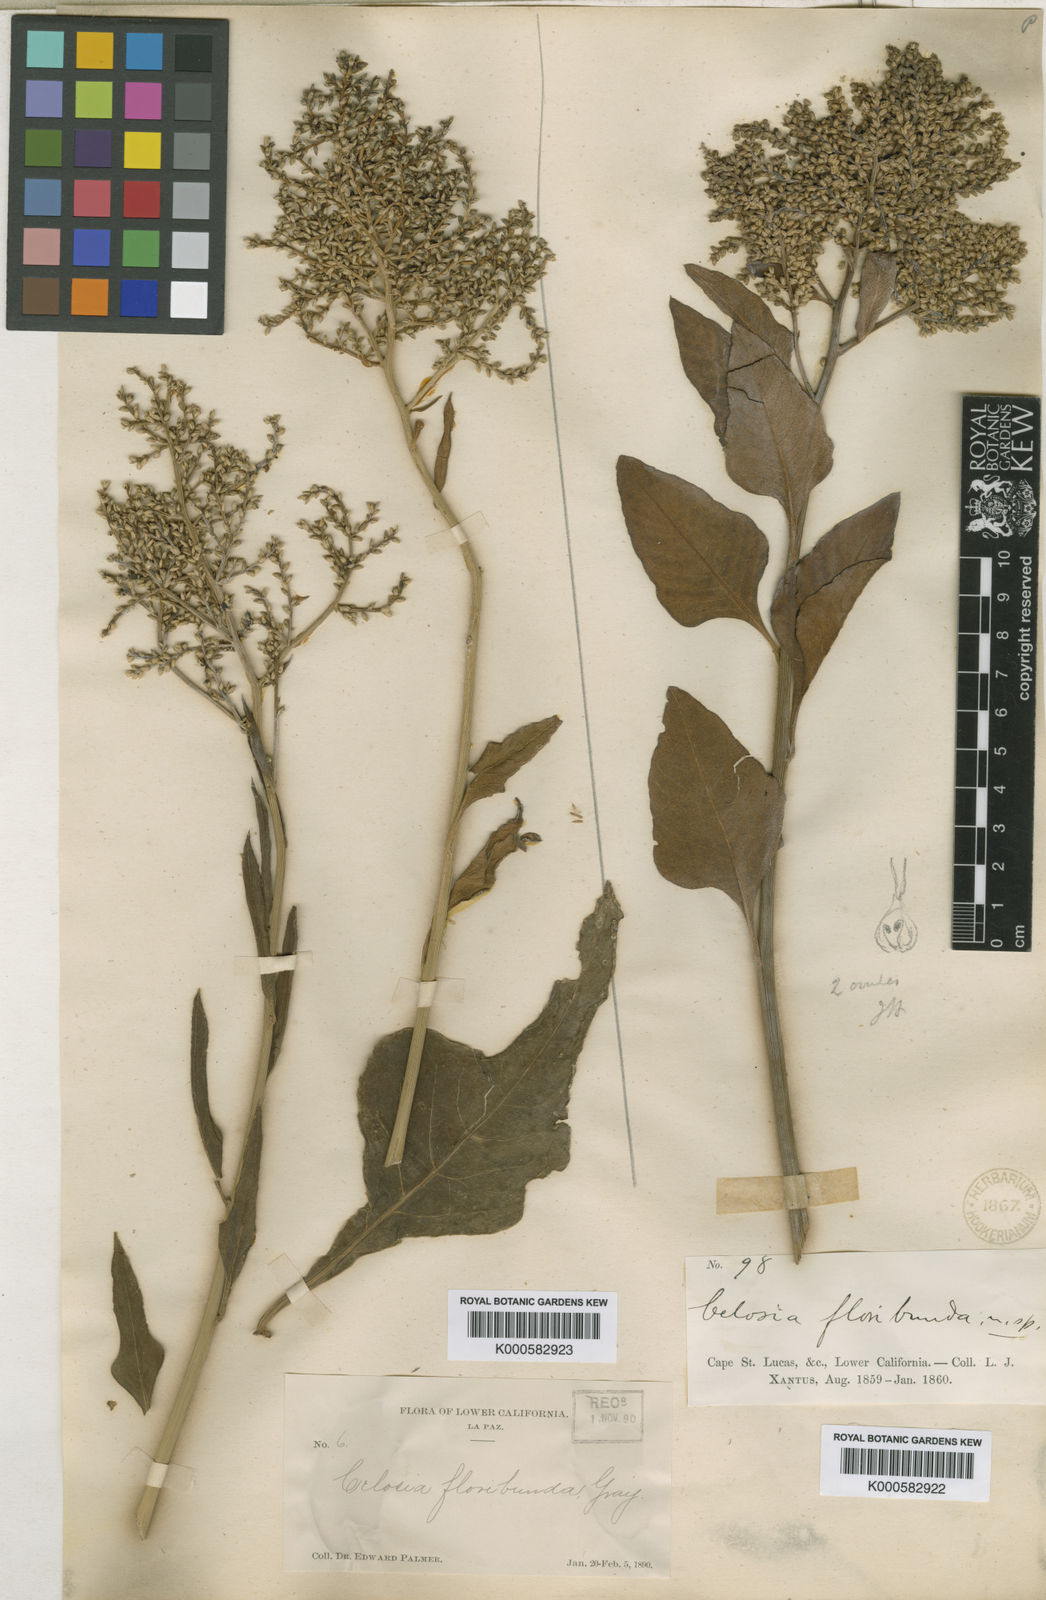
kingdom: Plantae
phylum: Tracheophyta
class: Magnoliopsida
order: Caryophyllales
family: Amaranthaceae
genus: Celosia
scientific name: Celosia floribunda
